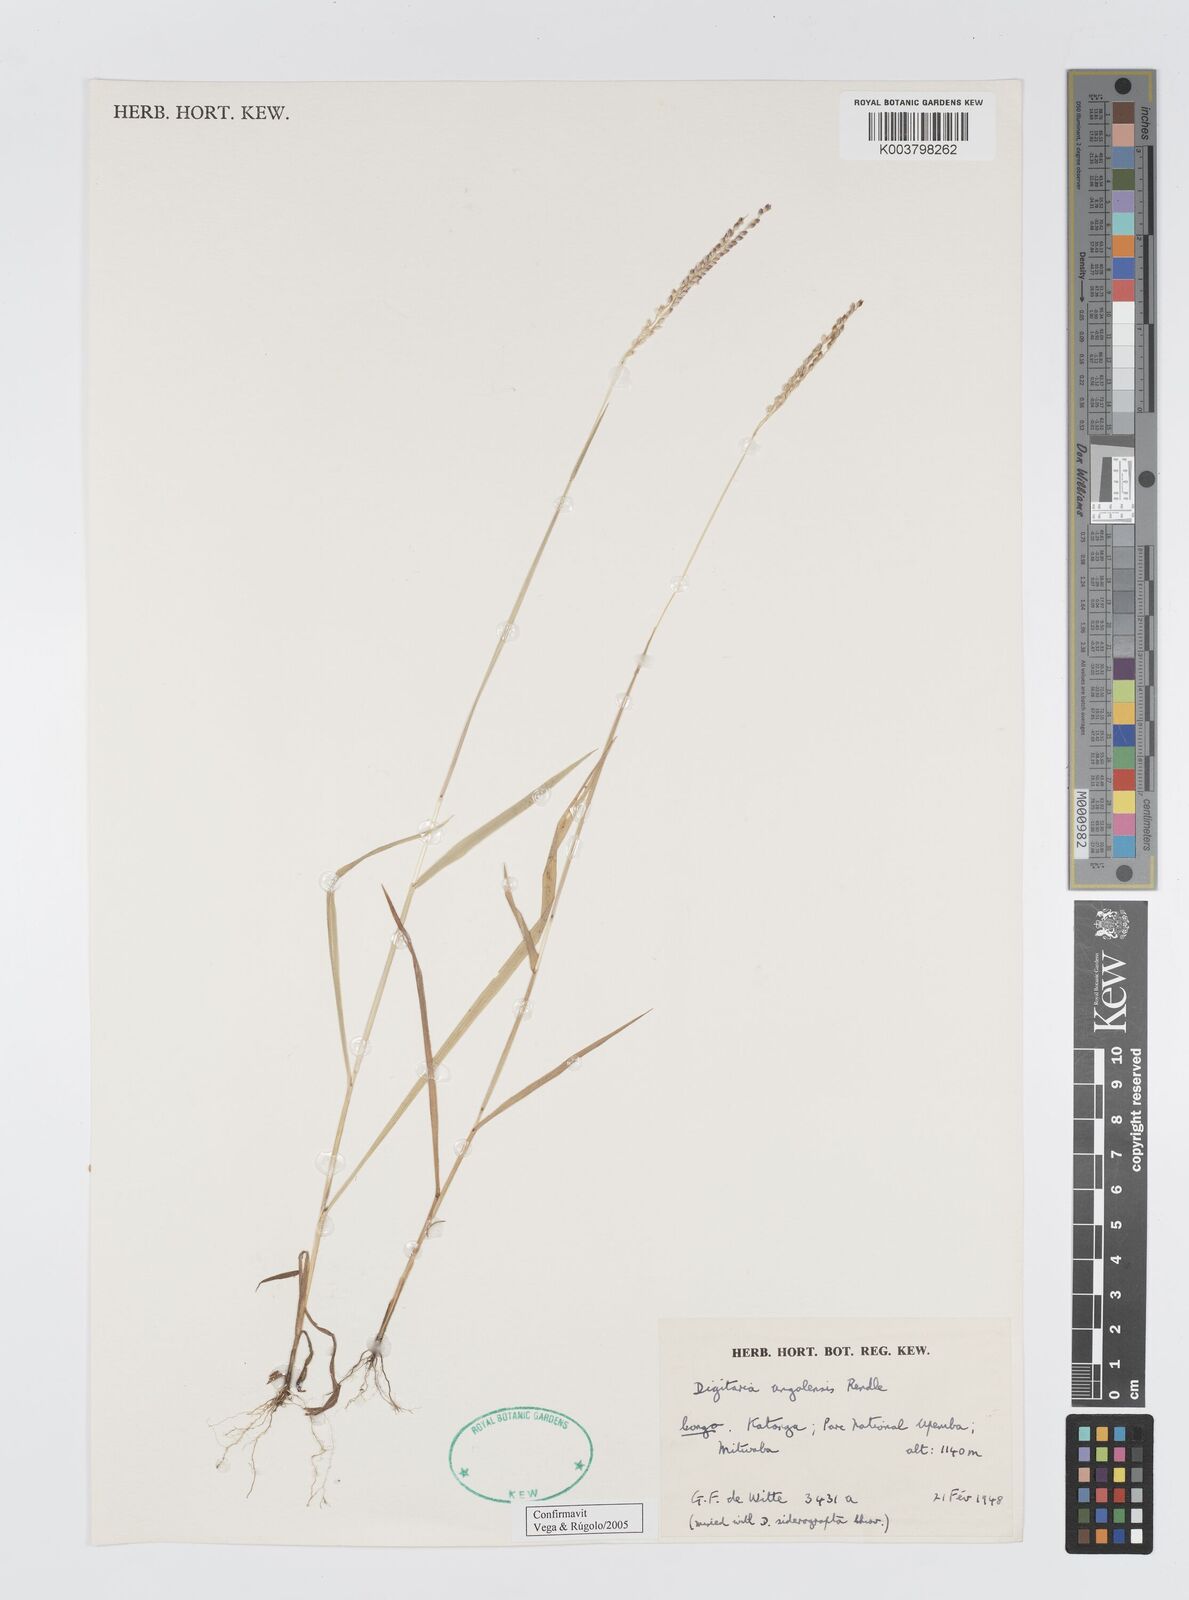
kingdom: Plantae
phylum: Tracheophyta
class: Liliopsida
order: Poales
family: Poaceae
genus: Digitaria
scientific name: Digitaria angolensis
